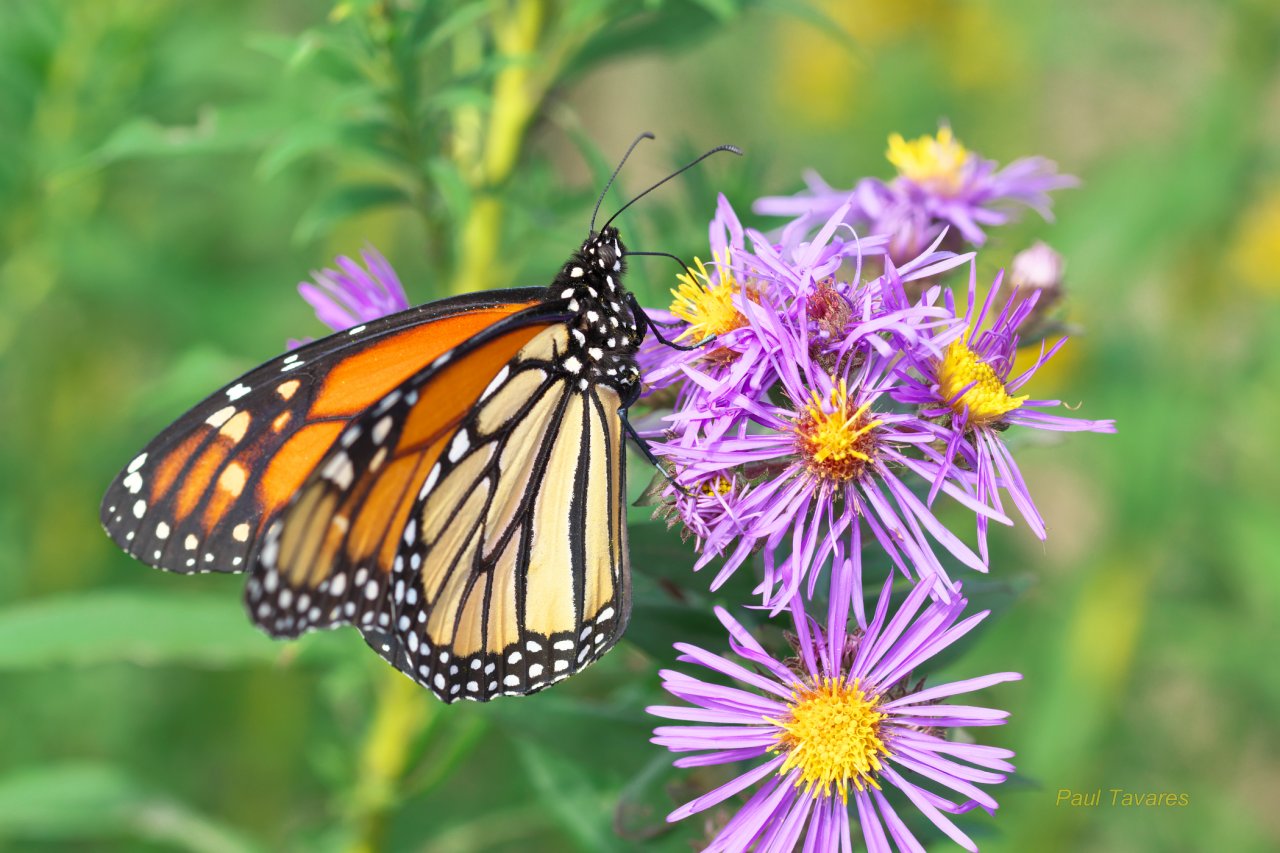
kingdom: Animalia
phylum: Arthropoda
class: Insecta
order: Lepidoptera
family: Nymphalidae
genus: Danaus
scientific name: Danaus plexippus
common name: Monarch
